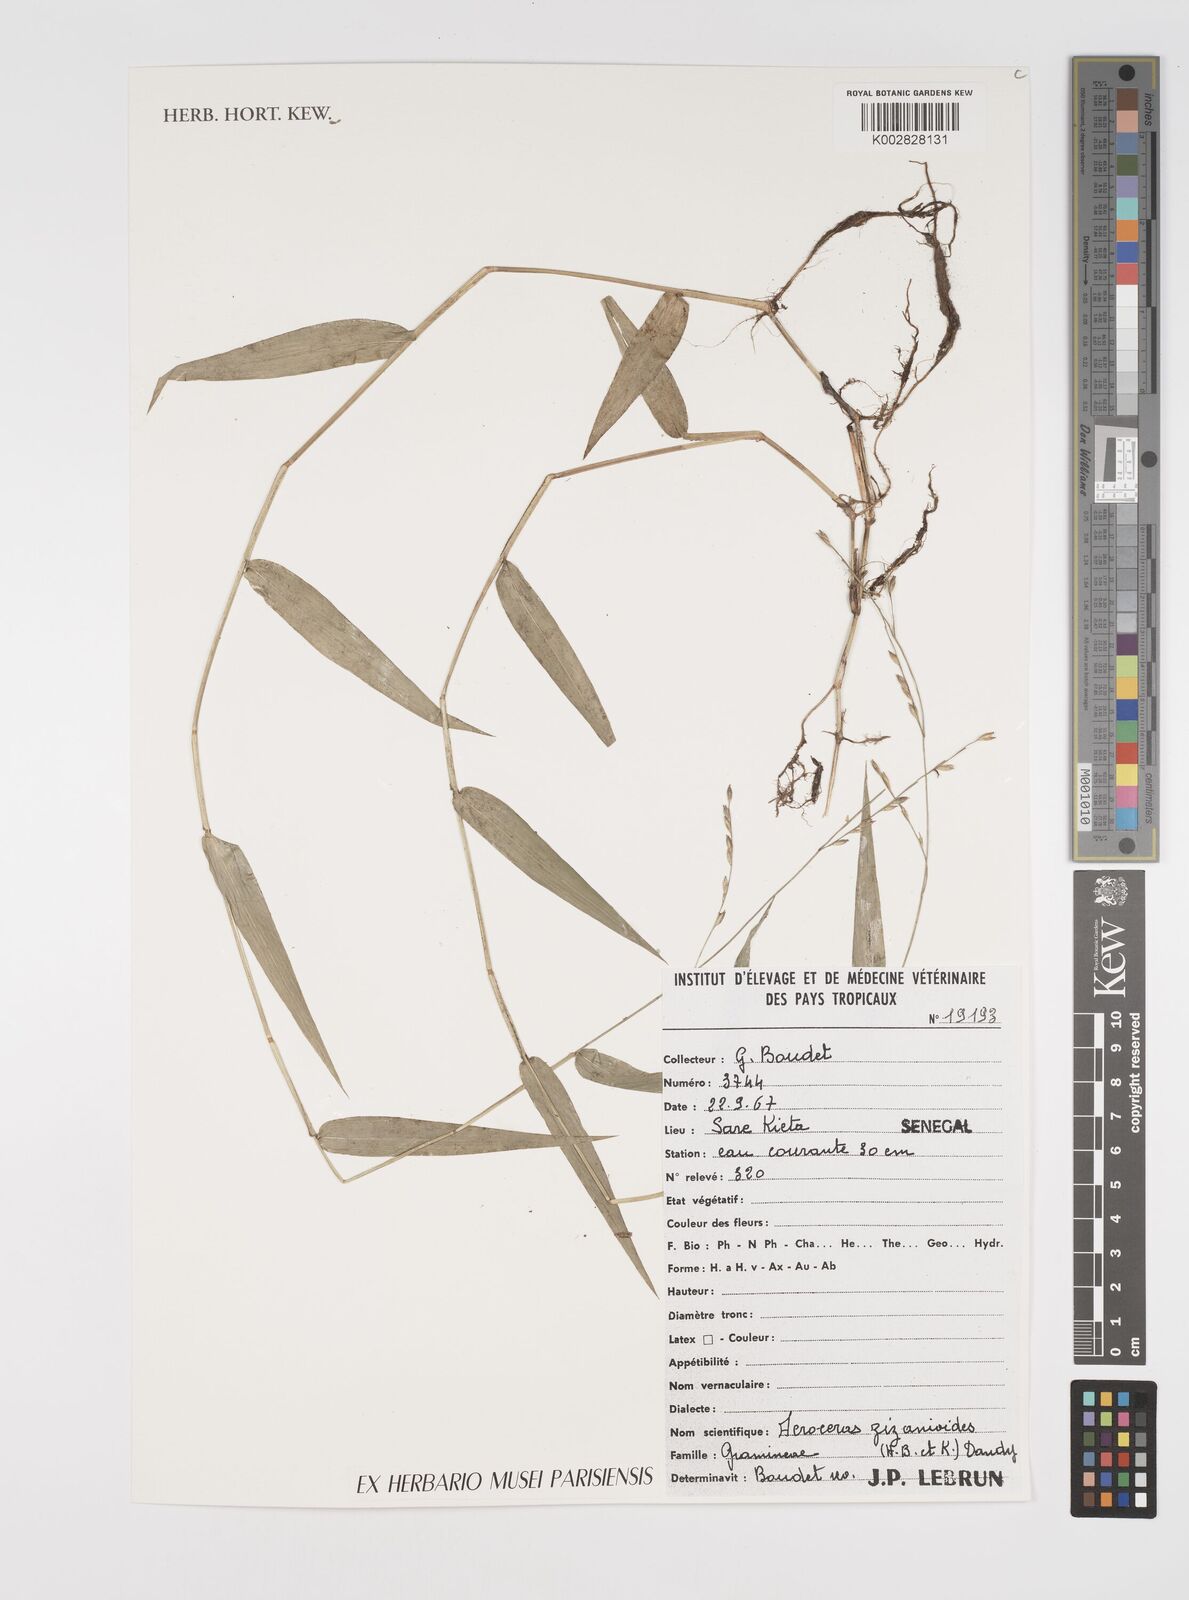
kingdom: Plantae
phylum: Tracheophyta
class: Liliopsida
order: Poales
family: Poaceae
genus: Acroceras
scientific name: Acroceras zizanioides
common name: Oat grass
